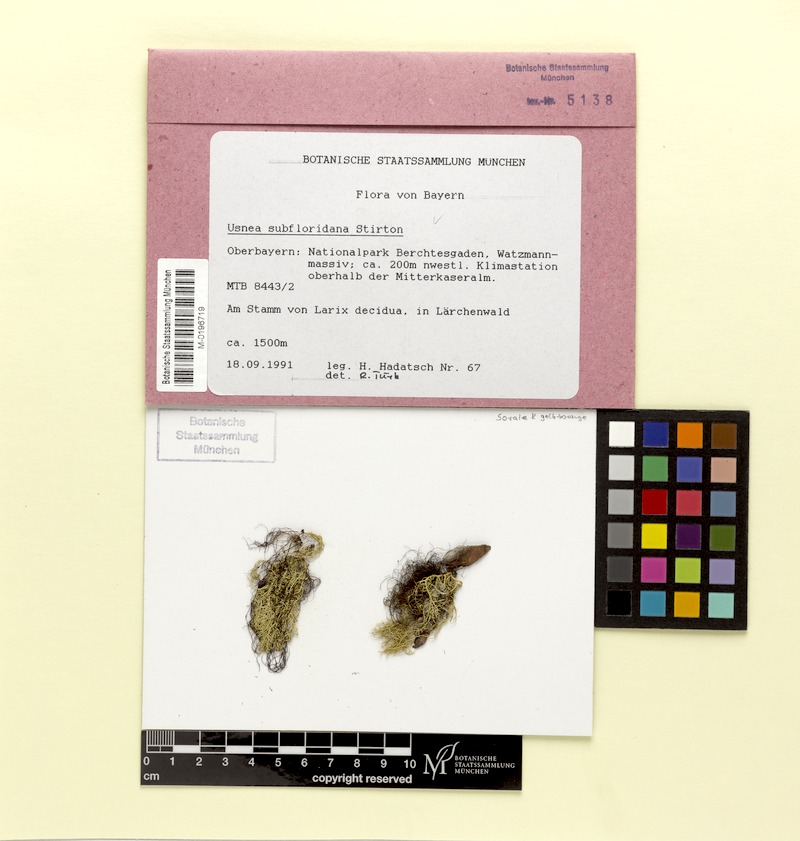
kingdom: Fungi
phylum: Ascomycota
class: Lecanoromycetes
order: Lecanorales
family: Parmeliaceae
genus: Usnea
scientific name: Usnea subfloridana
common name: Boreal beard lichen
